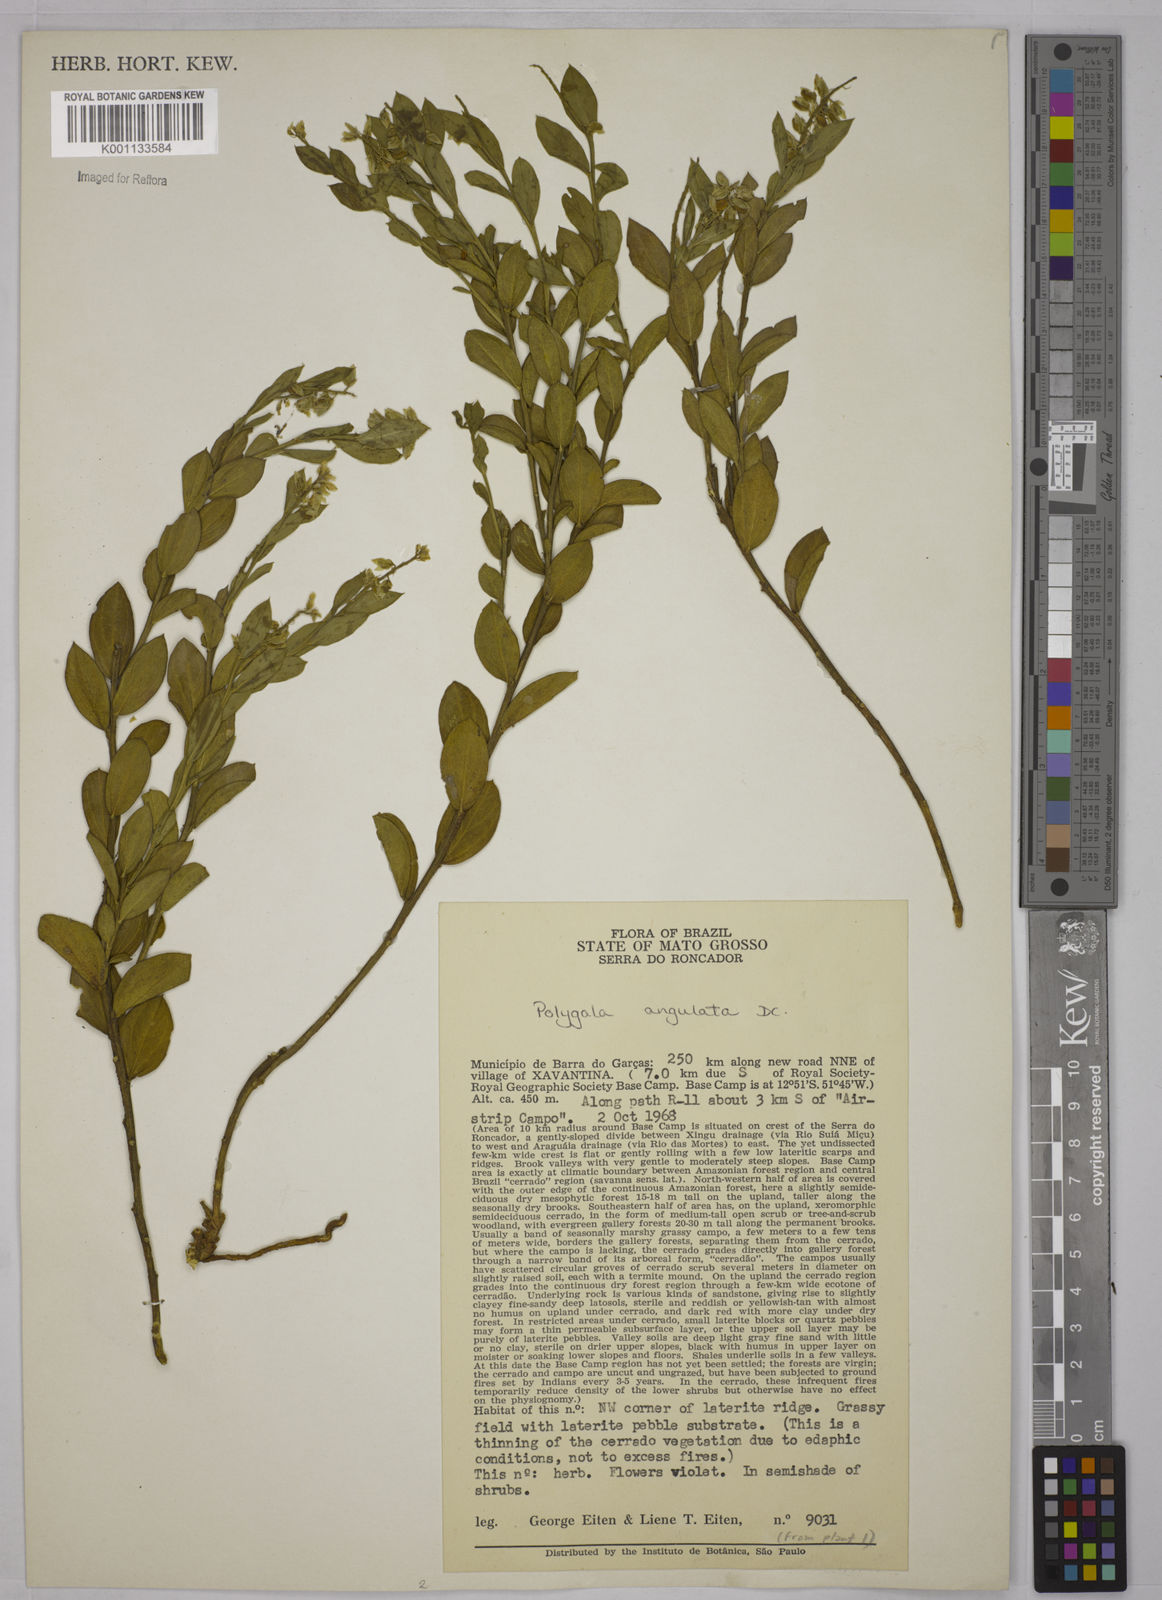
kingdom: Plantae
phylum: Tracheophyta
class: Magnoliopsida
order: Fabales
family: Polygalaceae
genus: Polygala
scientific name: Polygala poaya
